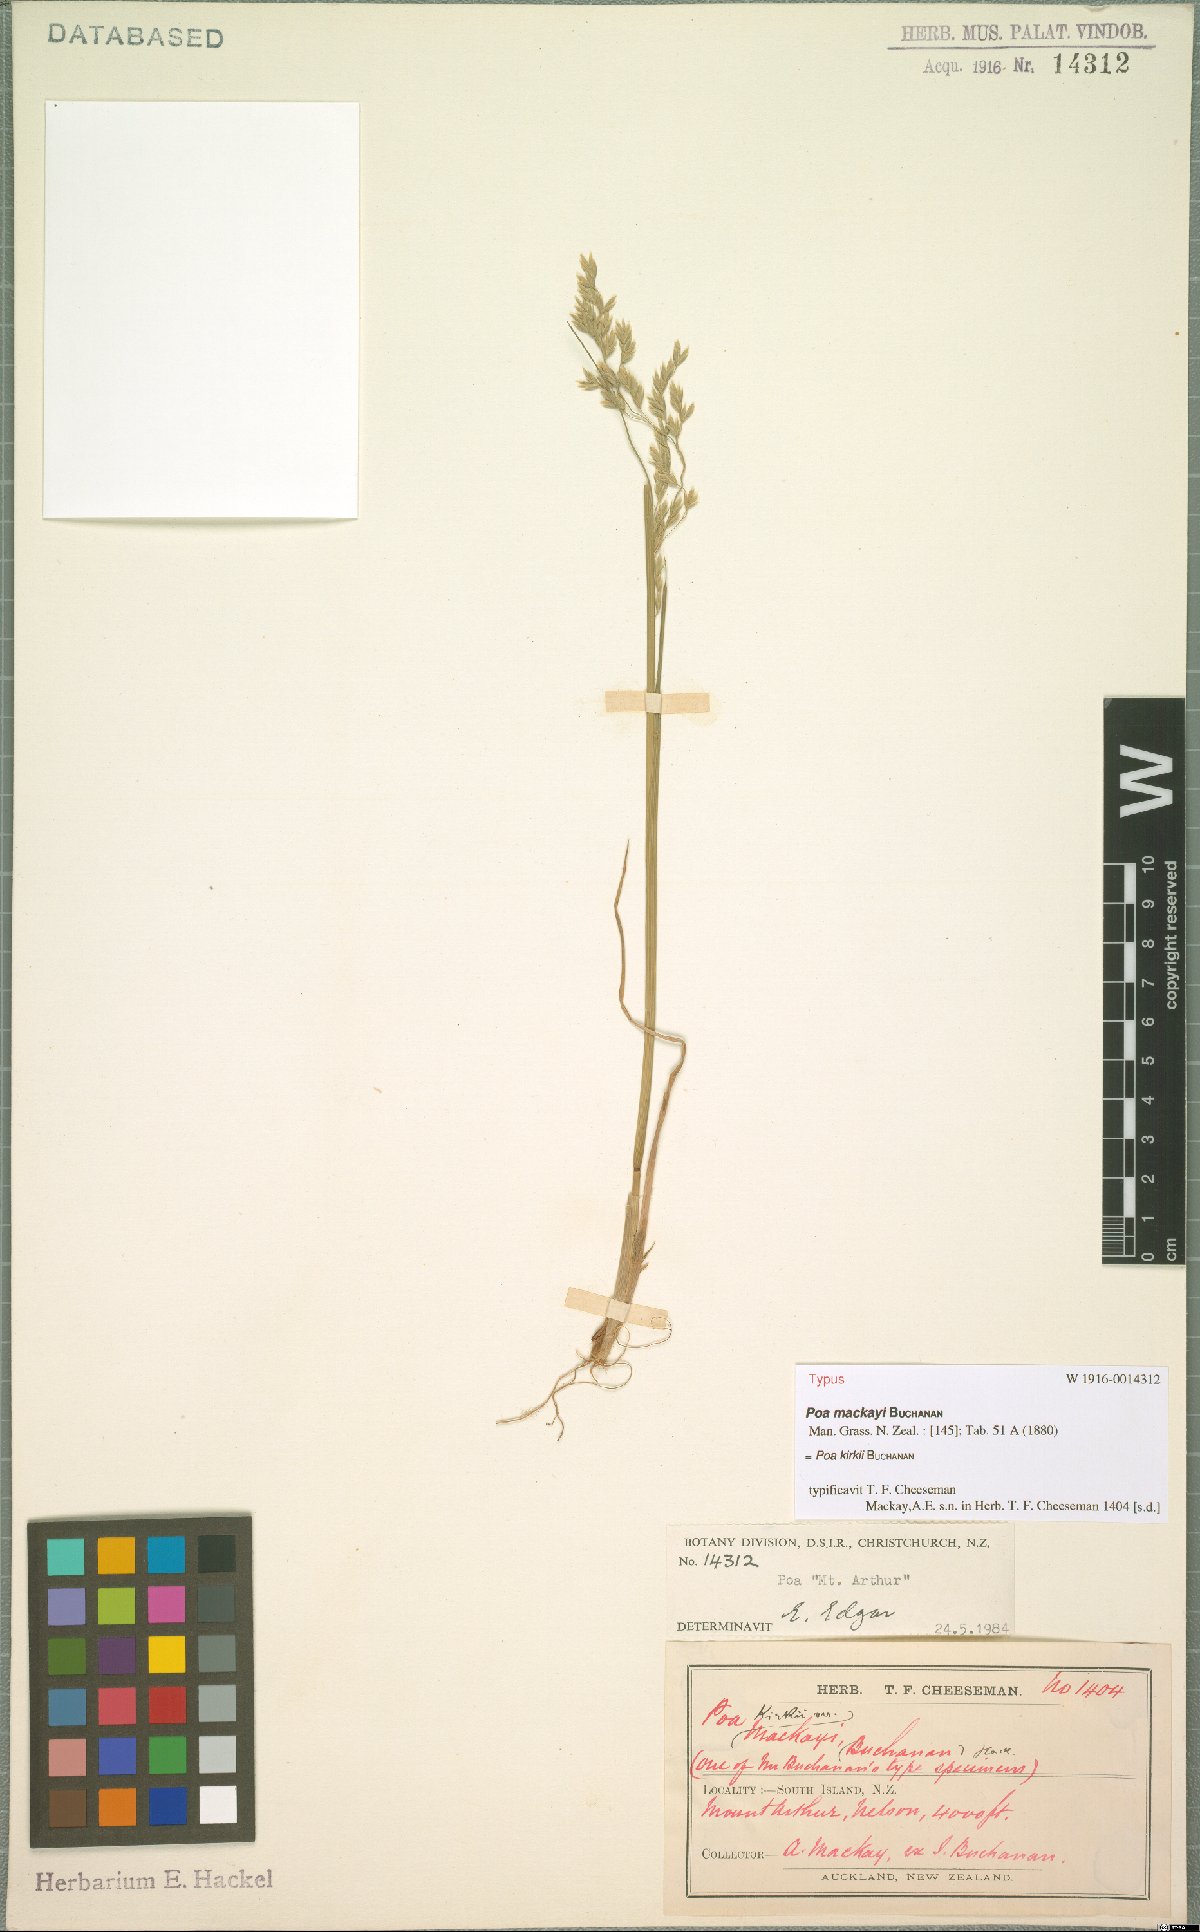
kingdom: Plantae
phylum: Tracheophyta
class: Liliopsida
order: Poales
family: Poaceae
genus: Poa
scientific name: Poa kirkii
